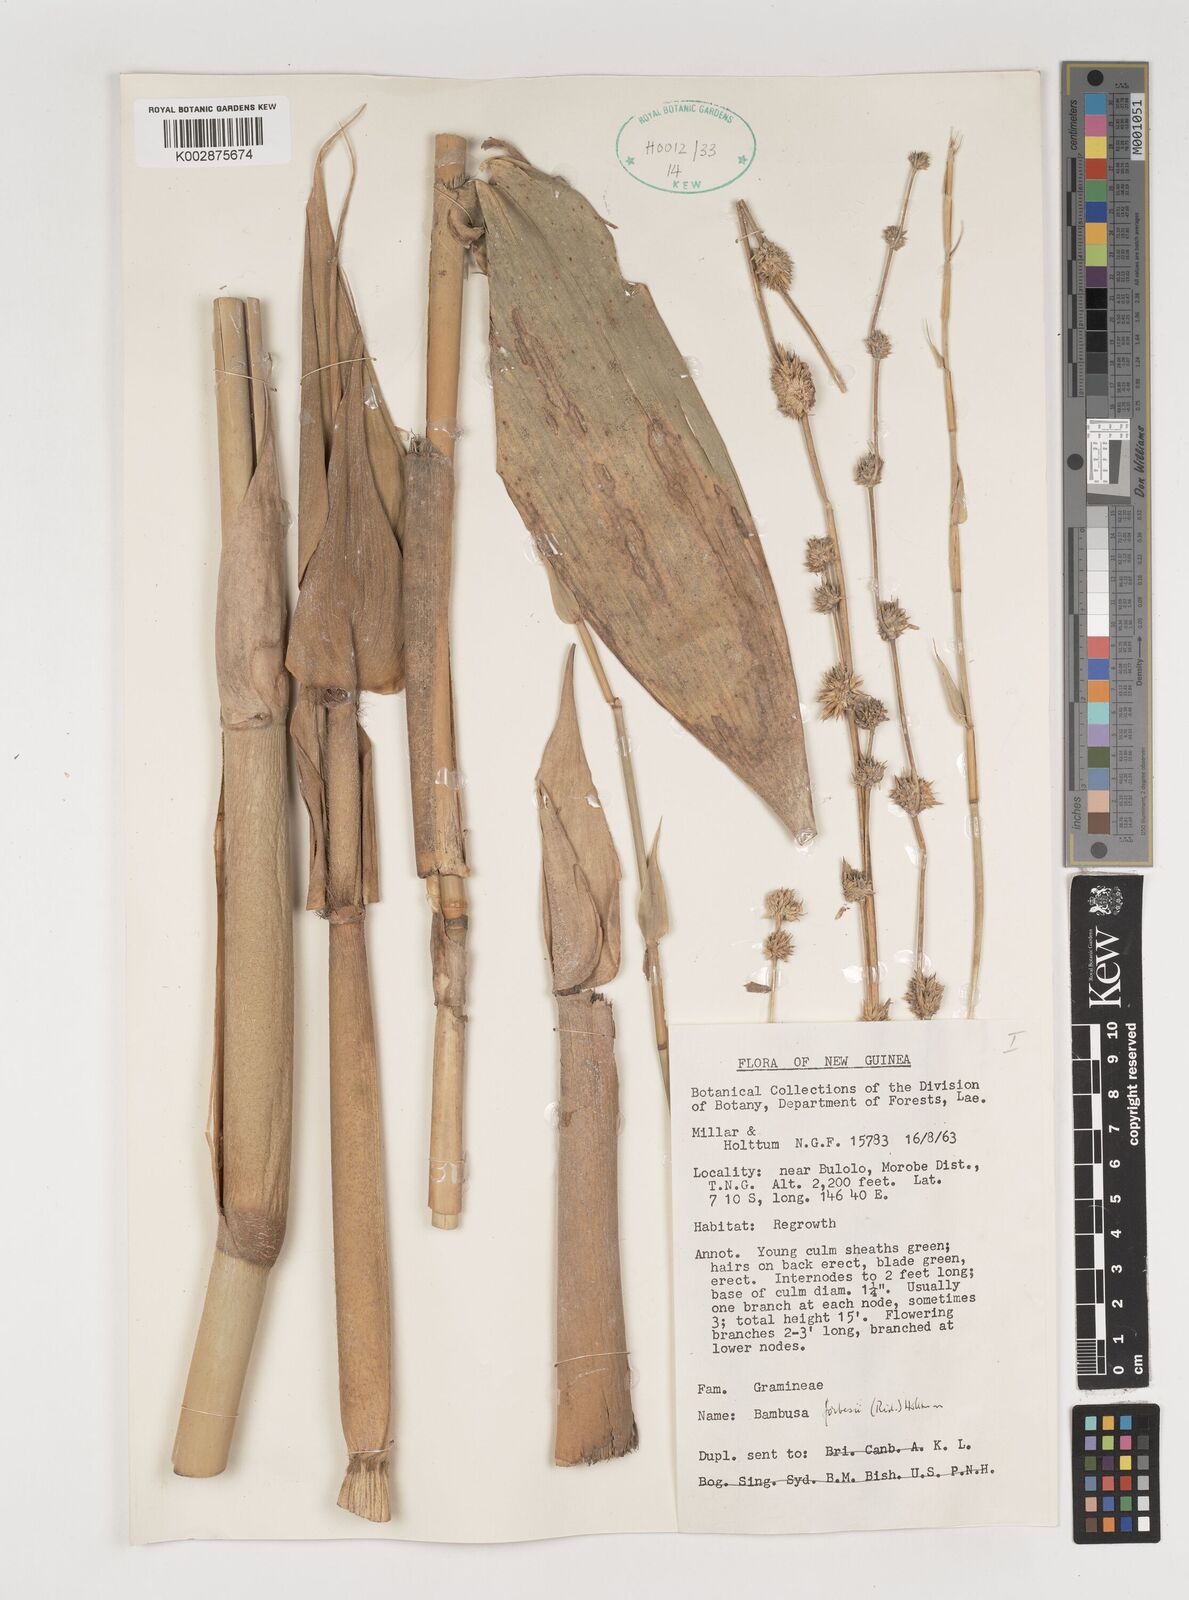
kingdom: Plantae
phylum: Tracheophyta
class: Liliopsida
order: Poales
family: Poaceae
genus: Neololeba
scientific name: Neololeba
